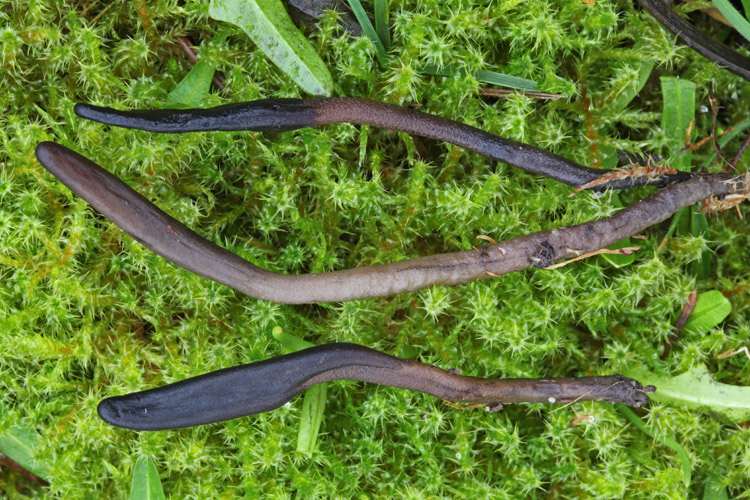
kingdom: Fungi
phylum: Ascomycota
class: Geoglossomycetes
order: Geoglossales
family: Geoglossaceae
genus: Geoglossum
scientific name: Geoglossum fallax
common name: småskællet jordtunge
